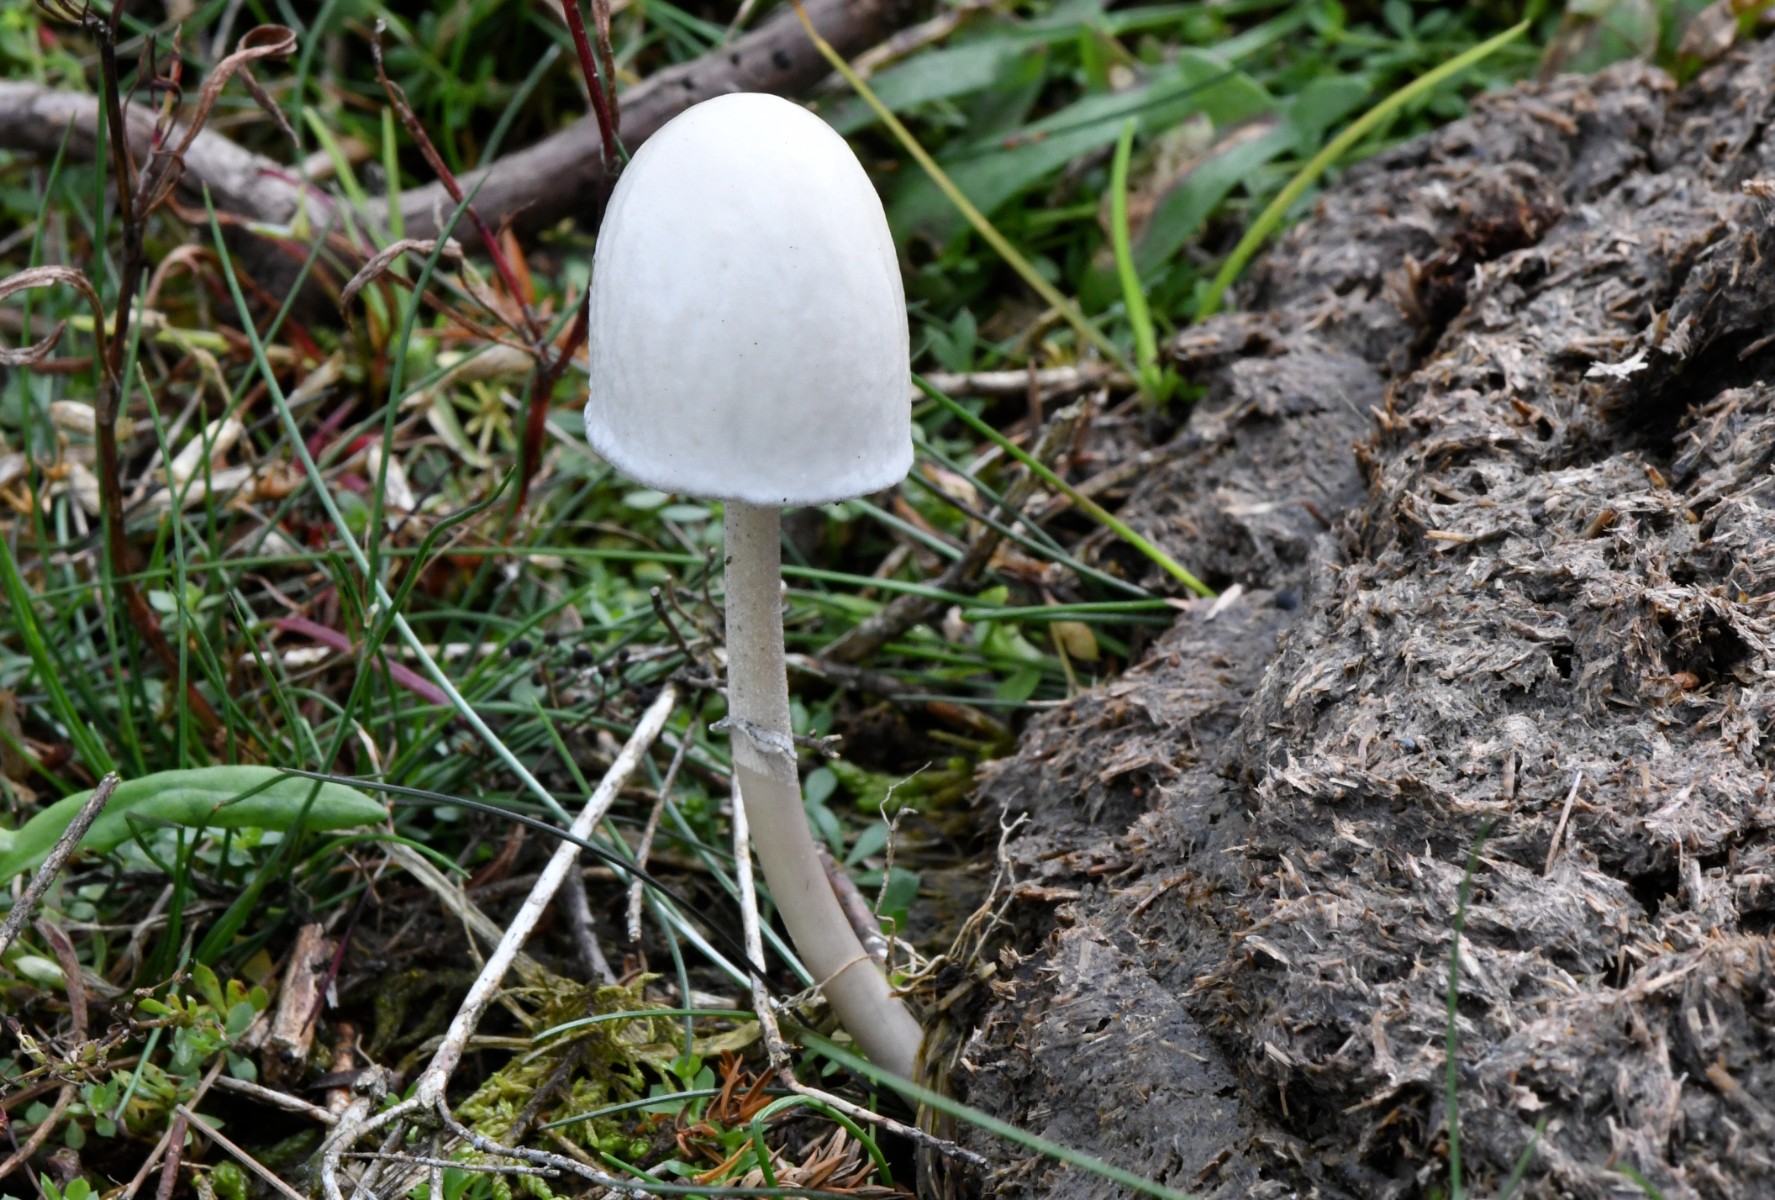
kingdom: Fungi
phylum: Basidiomycota
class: Agaricomycetes
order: Agaricales
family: Bolbitiaceae
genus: Panaeolus
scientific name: Panaeolus semiovatus
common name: ring-glanshat
